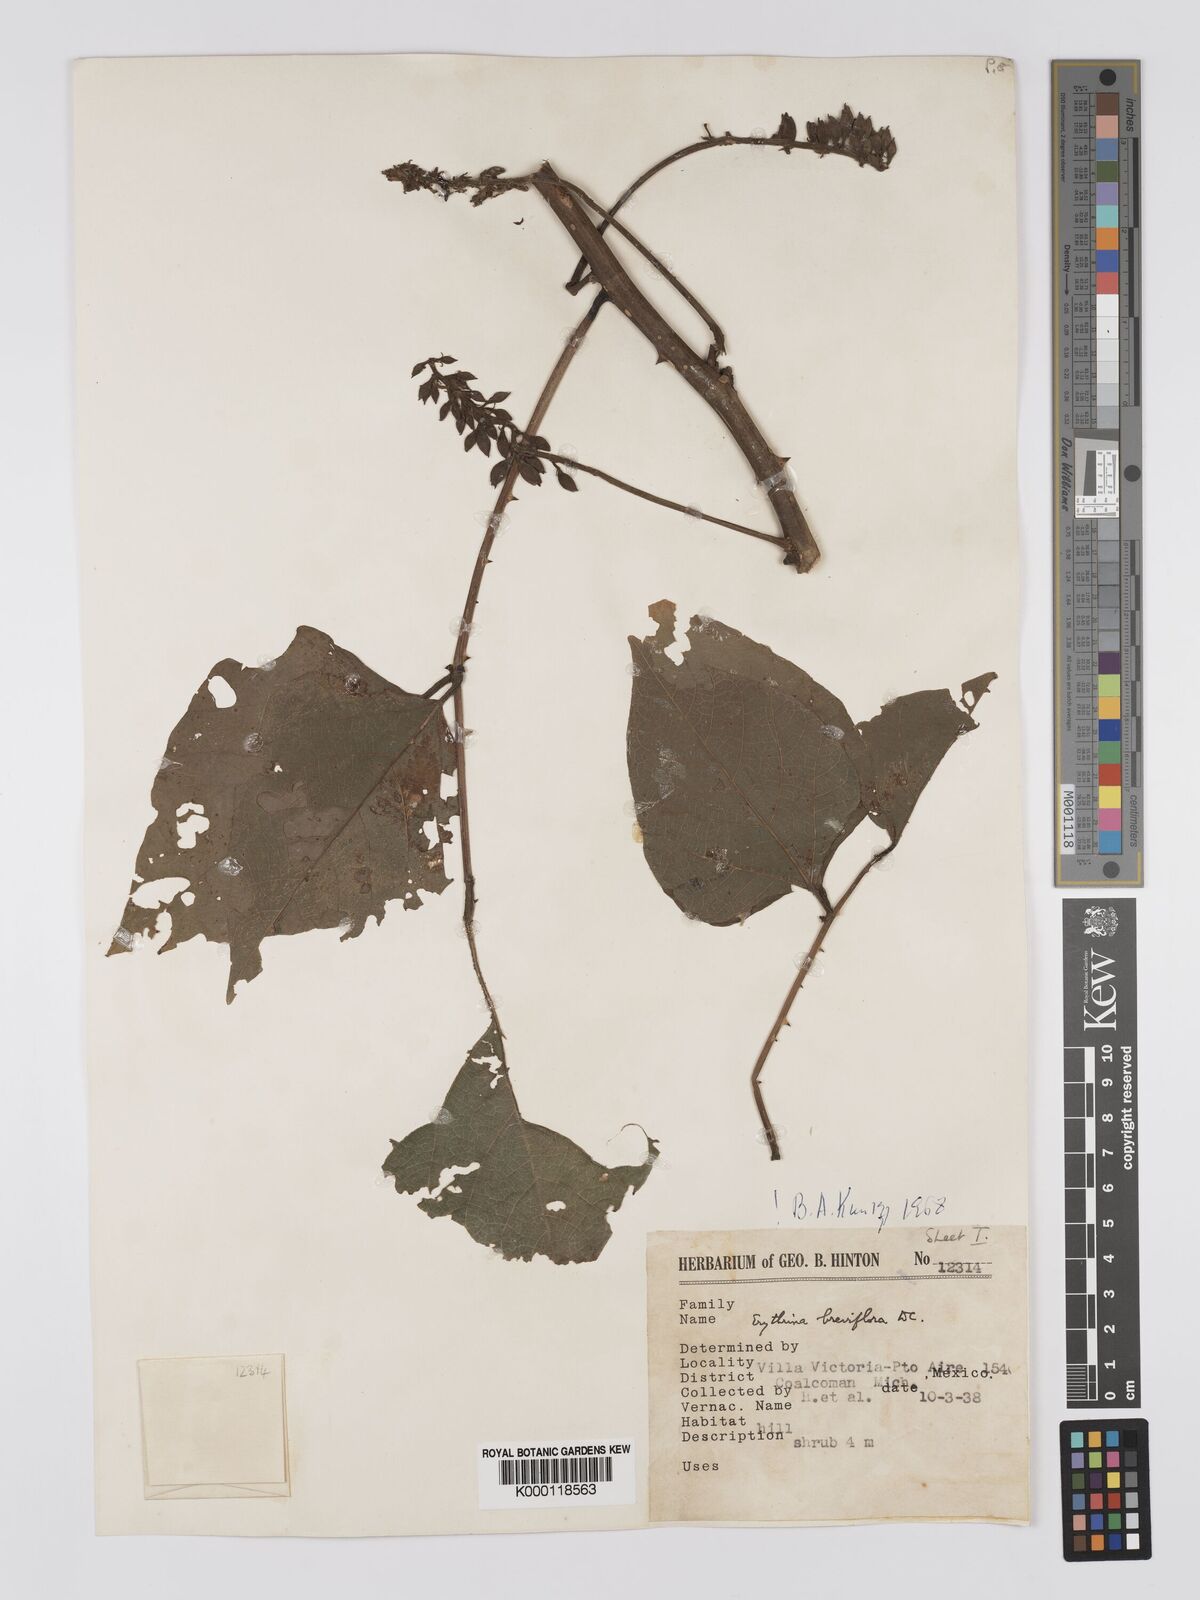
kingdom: Plantae
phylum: Tracheophyta
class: Magnoliopsida
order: Fabales
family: Fabaceae
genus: Erythrina
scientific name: Erythrina breviflora
